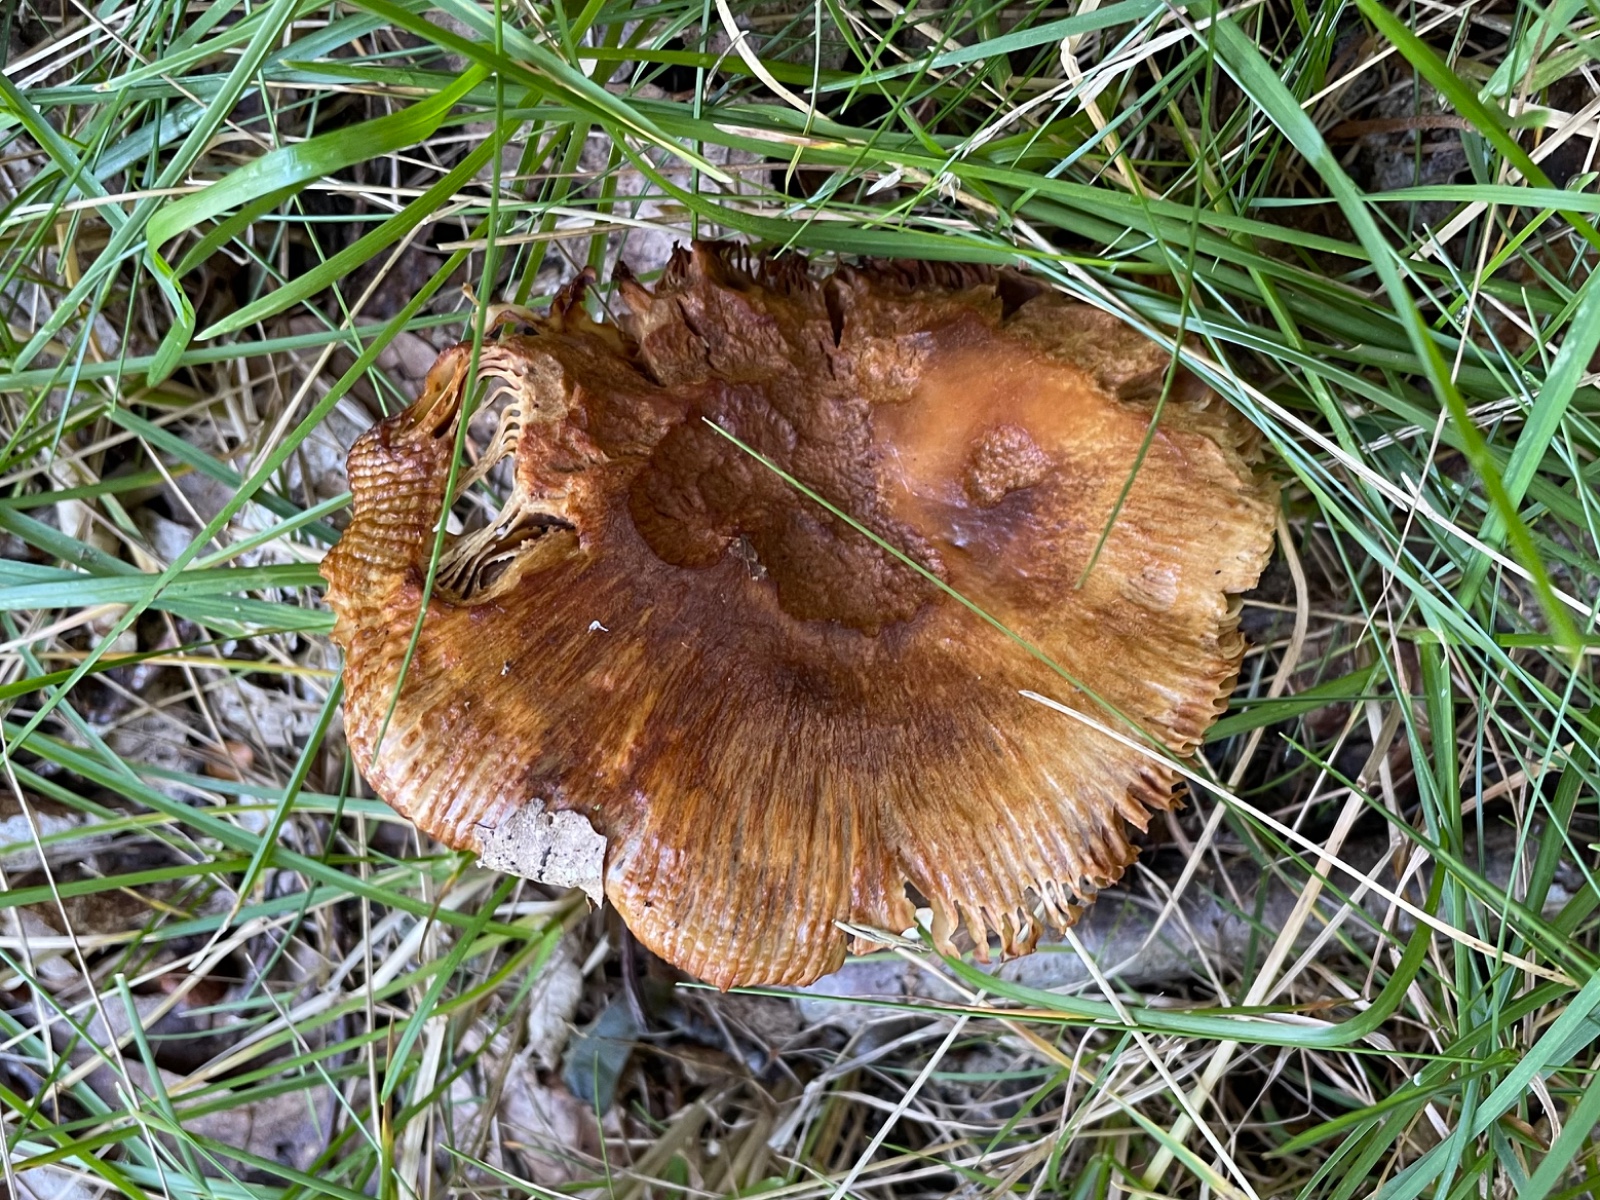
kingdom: Fungi
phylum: Basidiomycota
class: Agaricomycetes
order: Russulales
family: Russulaceae
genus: Russula
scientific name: Russula foetens
